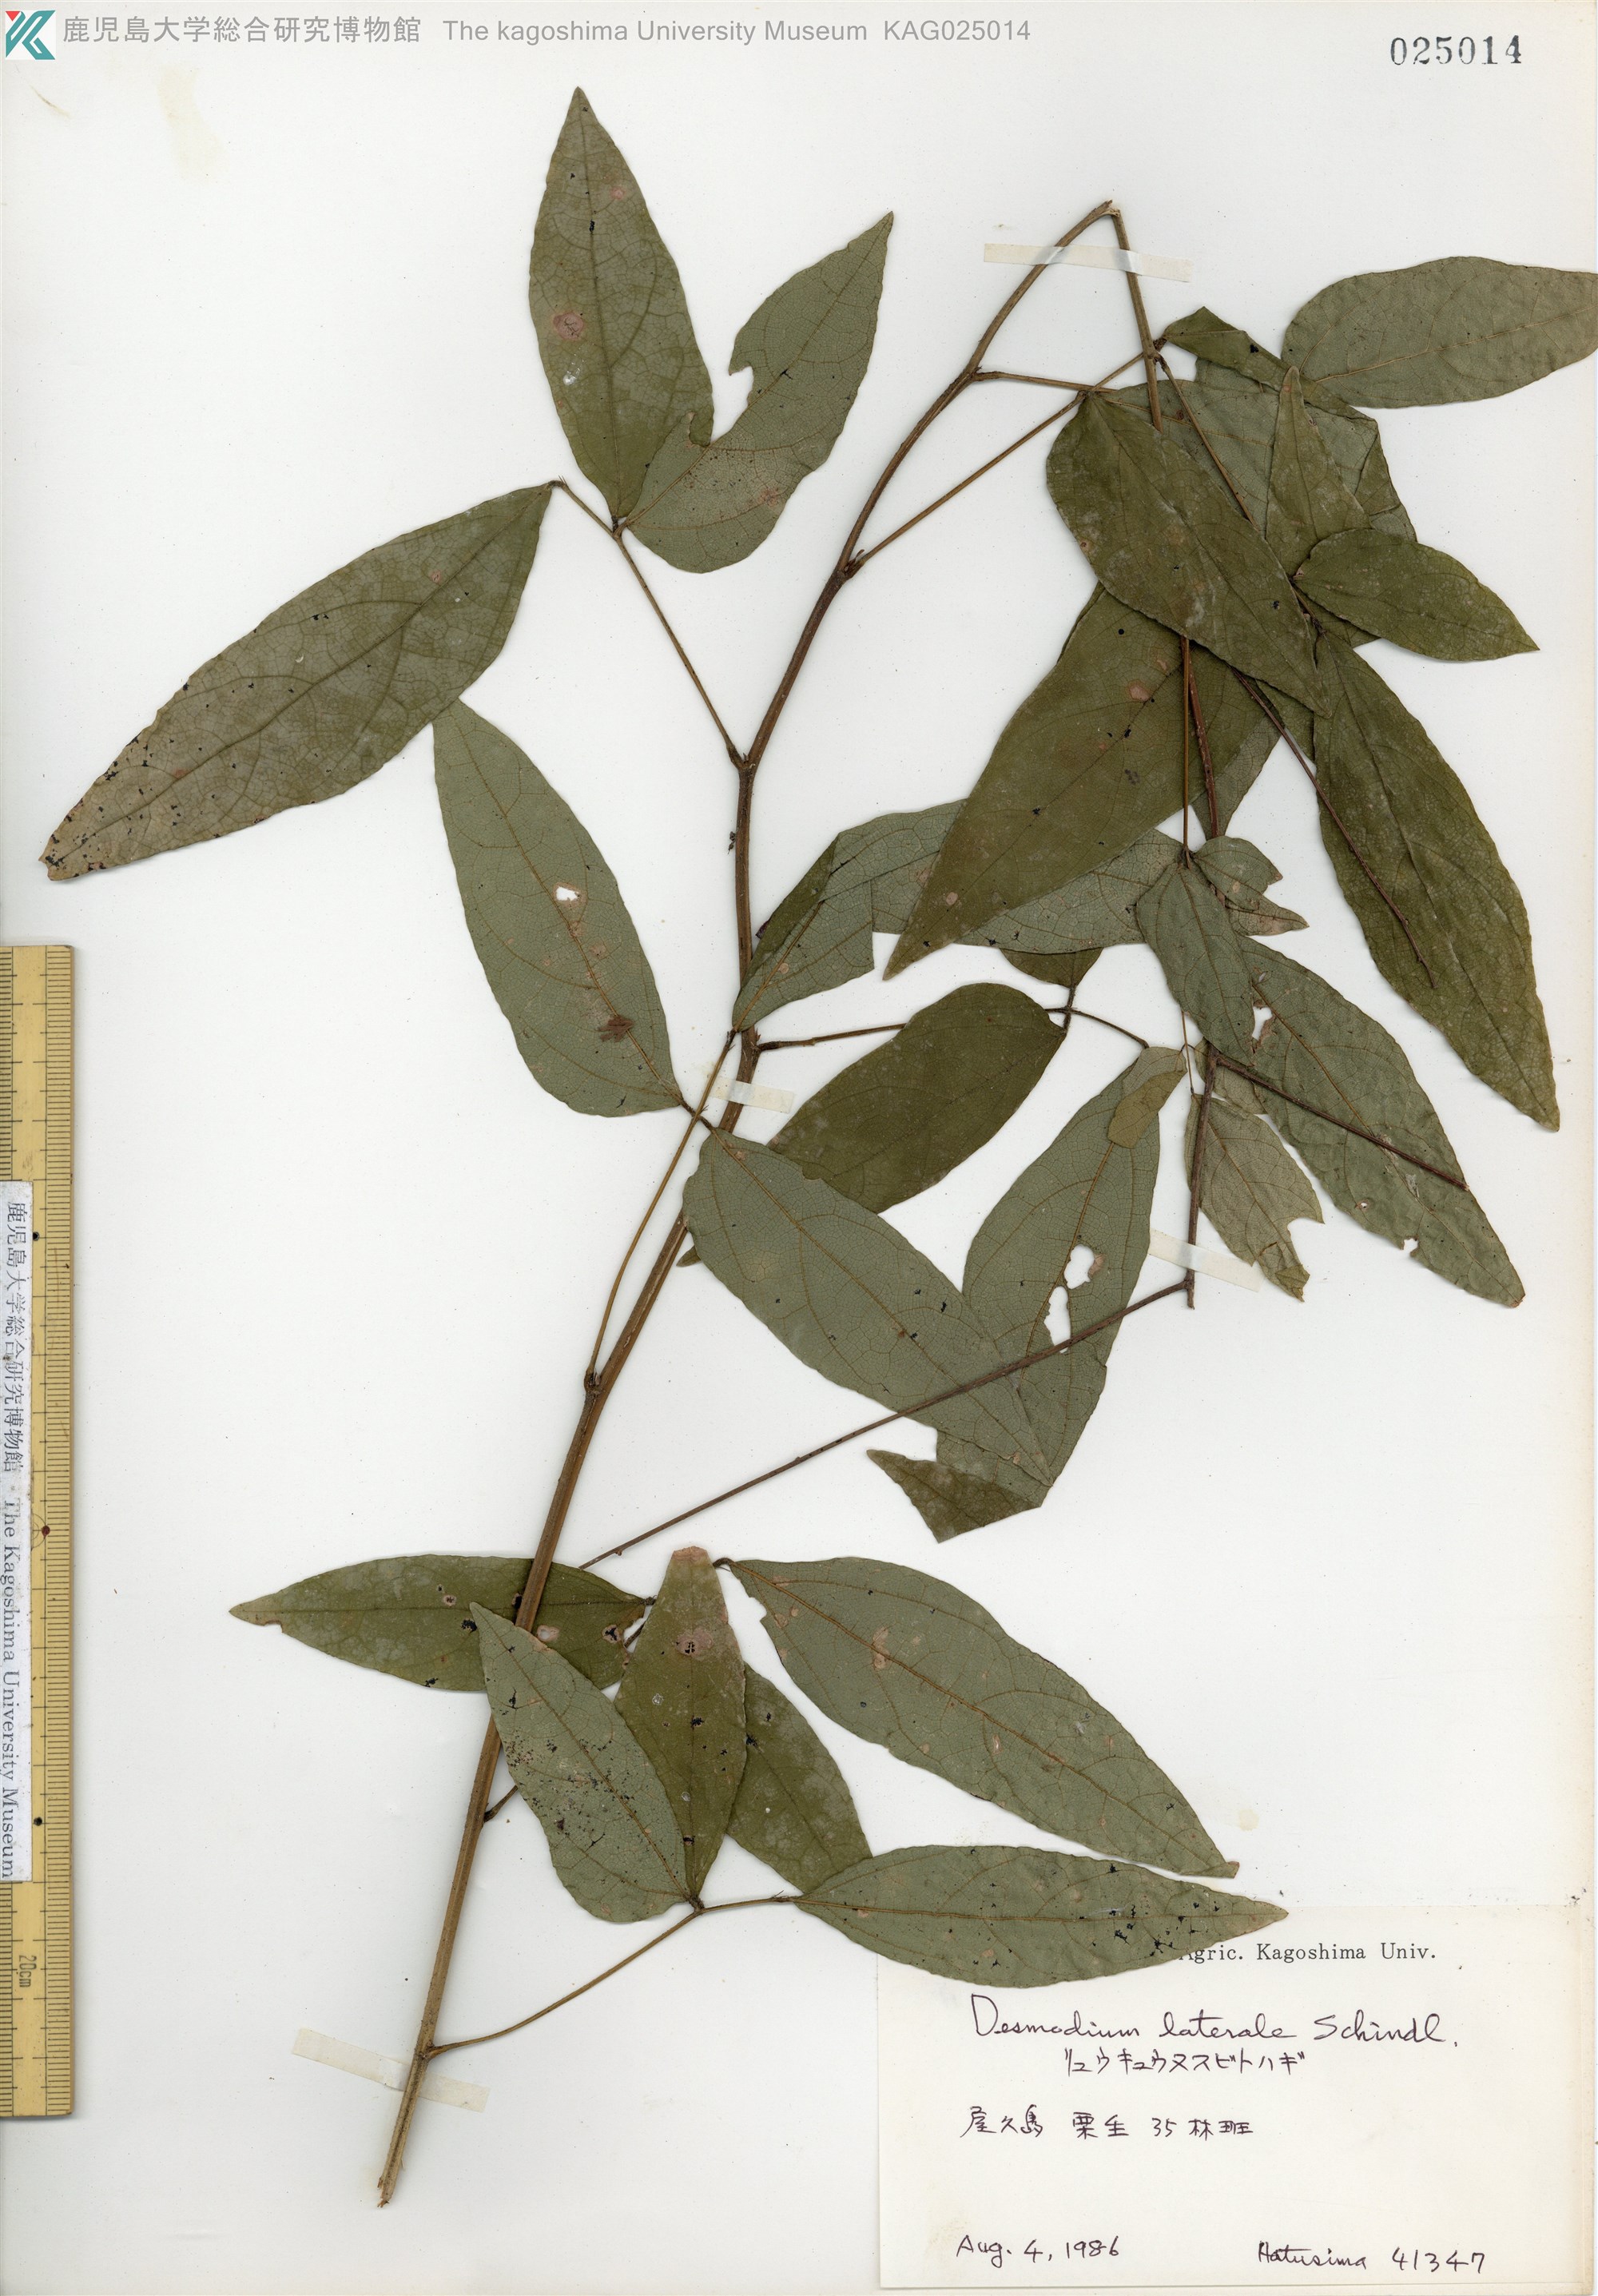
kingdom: Plantae
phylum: Tracheophyta
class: Magnoliopsida
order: Fabales
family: Fabaceae
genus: Hylodesmum
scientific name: Hylodesmum laterale
